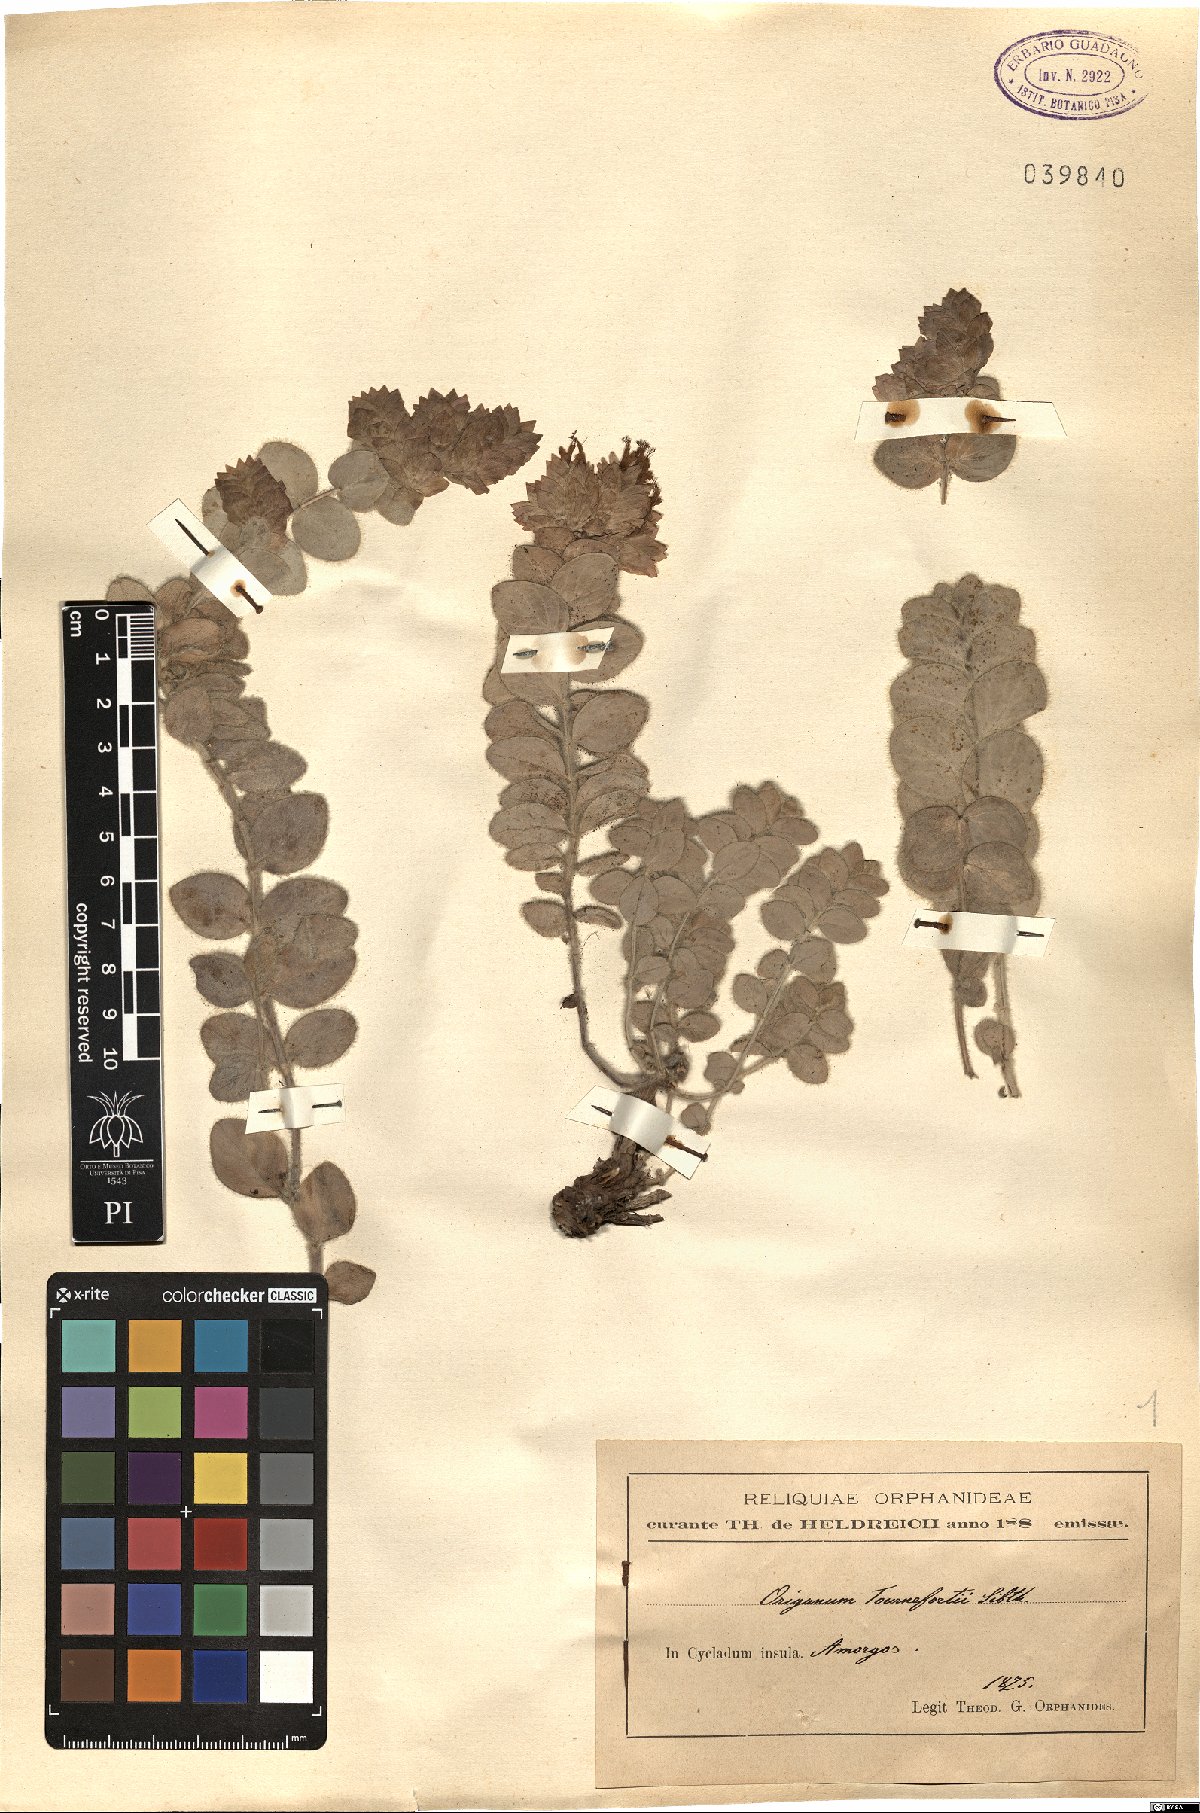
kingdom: Plantae
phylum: Tracheophyta
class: Magnoliopsida
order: Lamiales
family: Lamiaceae
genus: Origanum
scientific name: Origanum calcaratum
